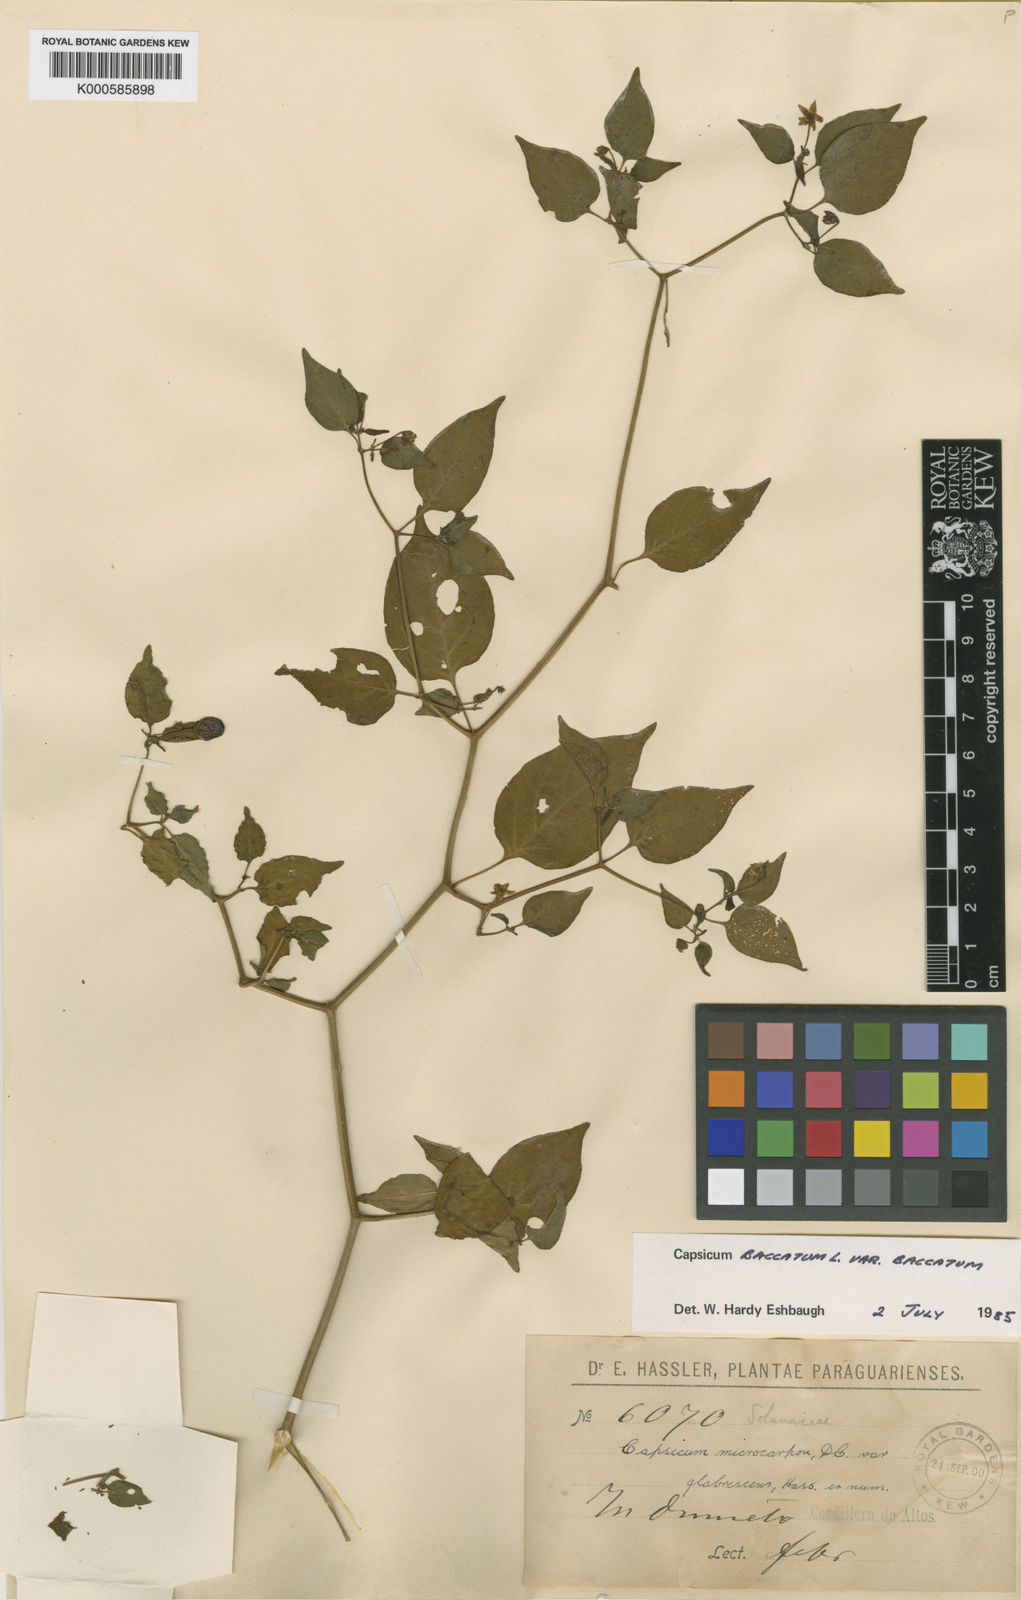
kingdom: Plantae
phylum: Tracheophyta
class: Magnoliopsida
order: Solanales
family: Solanaceae
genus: Capsicum
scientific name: Capsicum baccatum
